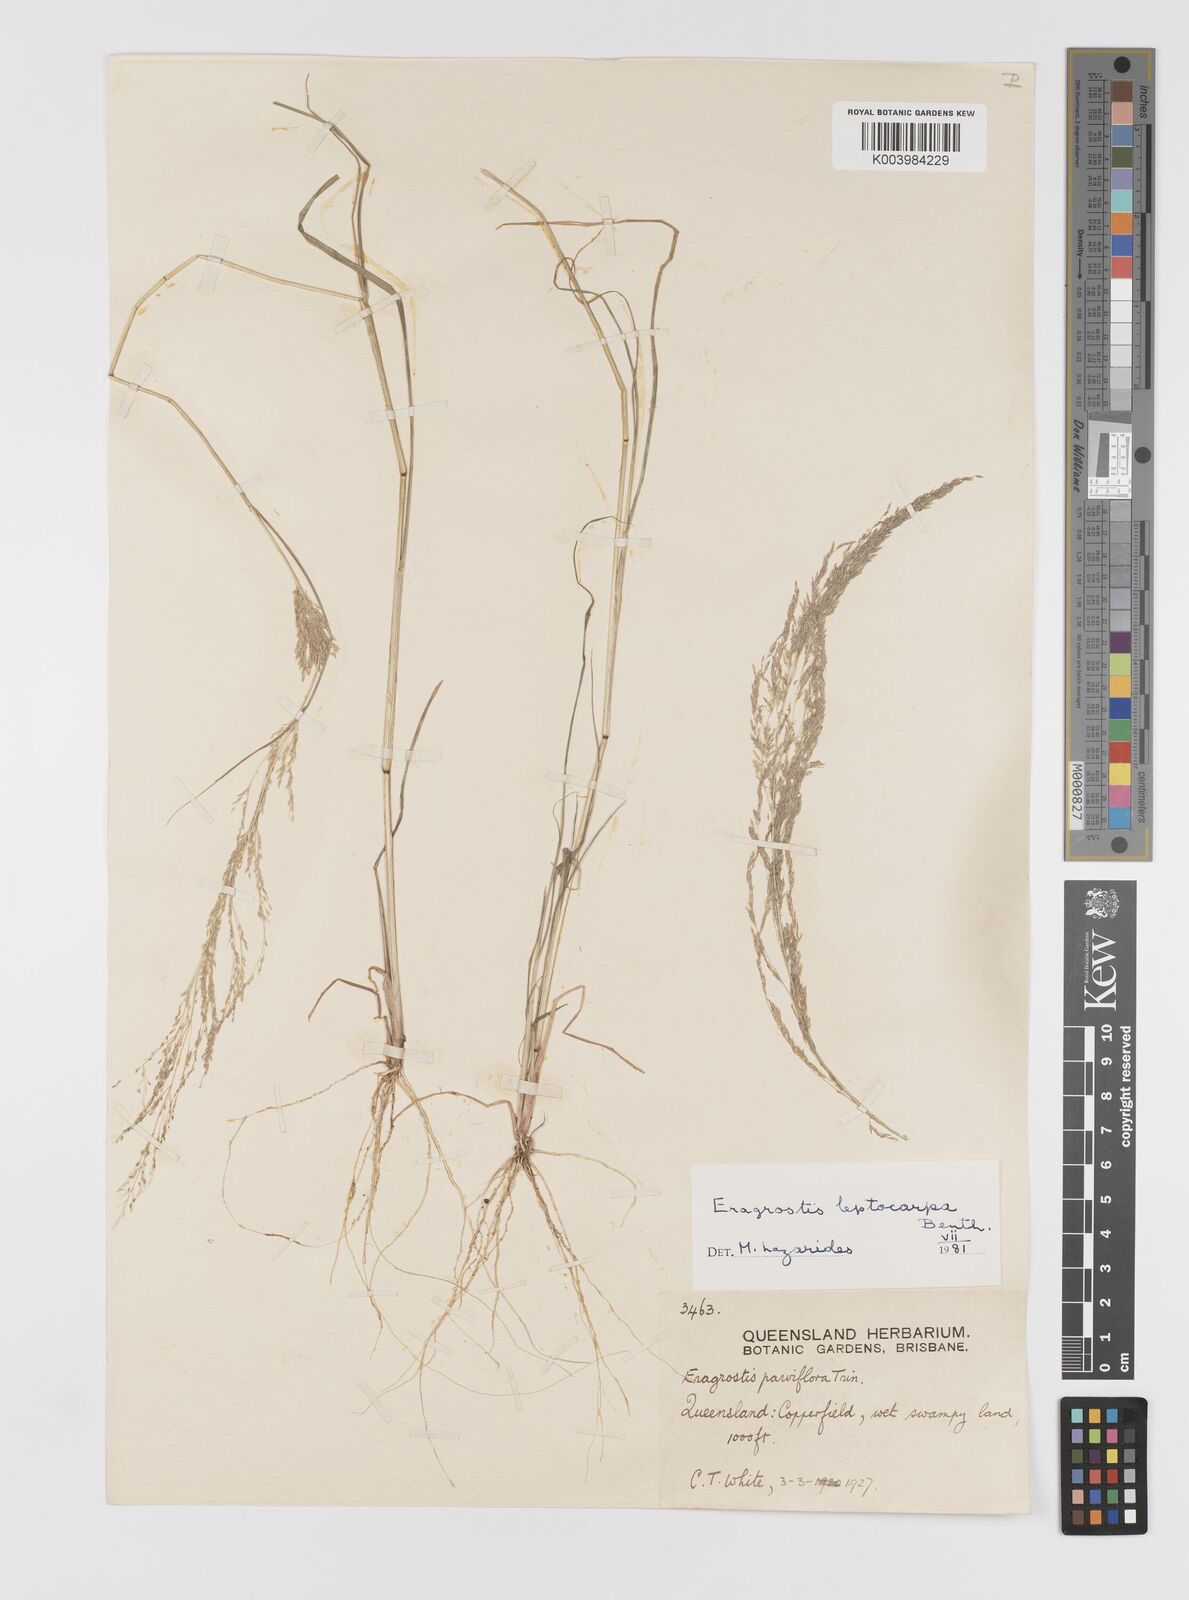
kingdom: Plantae
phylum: Tracheophyta
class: Liliopsida
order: Poales
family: Poaceae
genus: Eragrostis
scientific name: Eragrostis leptocarpa
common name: Drooping love grass
